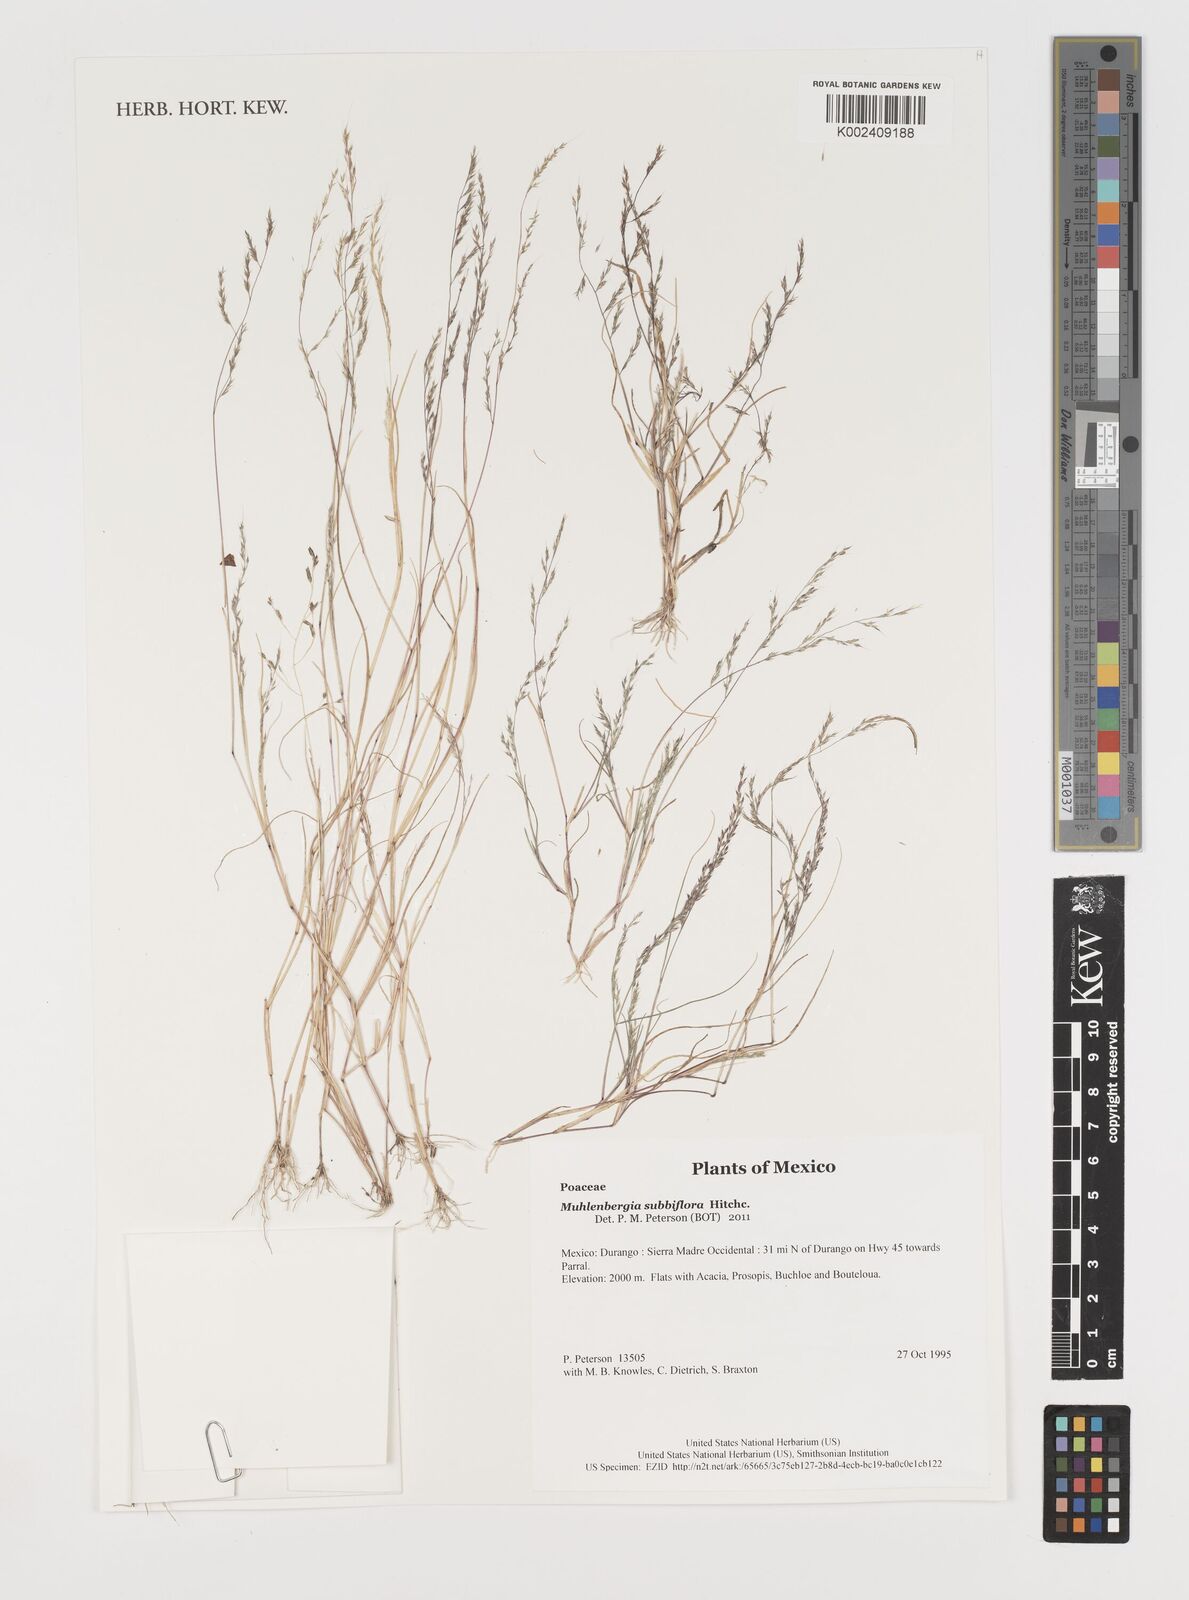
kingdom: Plantae
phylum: Tracheophyta
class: Liliopsida
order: Poales
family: Poaceae
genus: Muhlenbergia
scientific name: Muhlenbergia subbiflora
